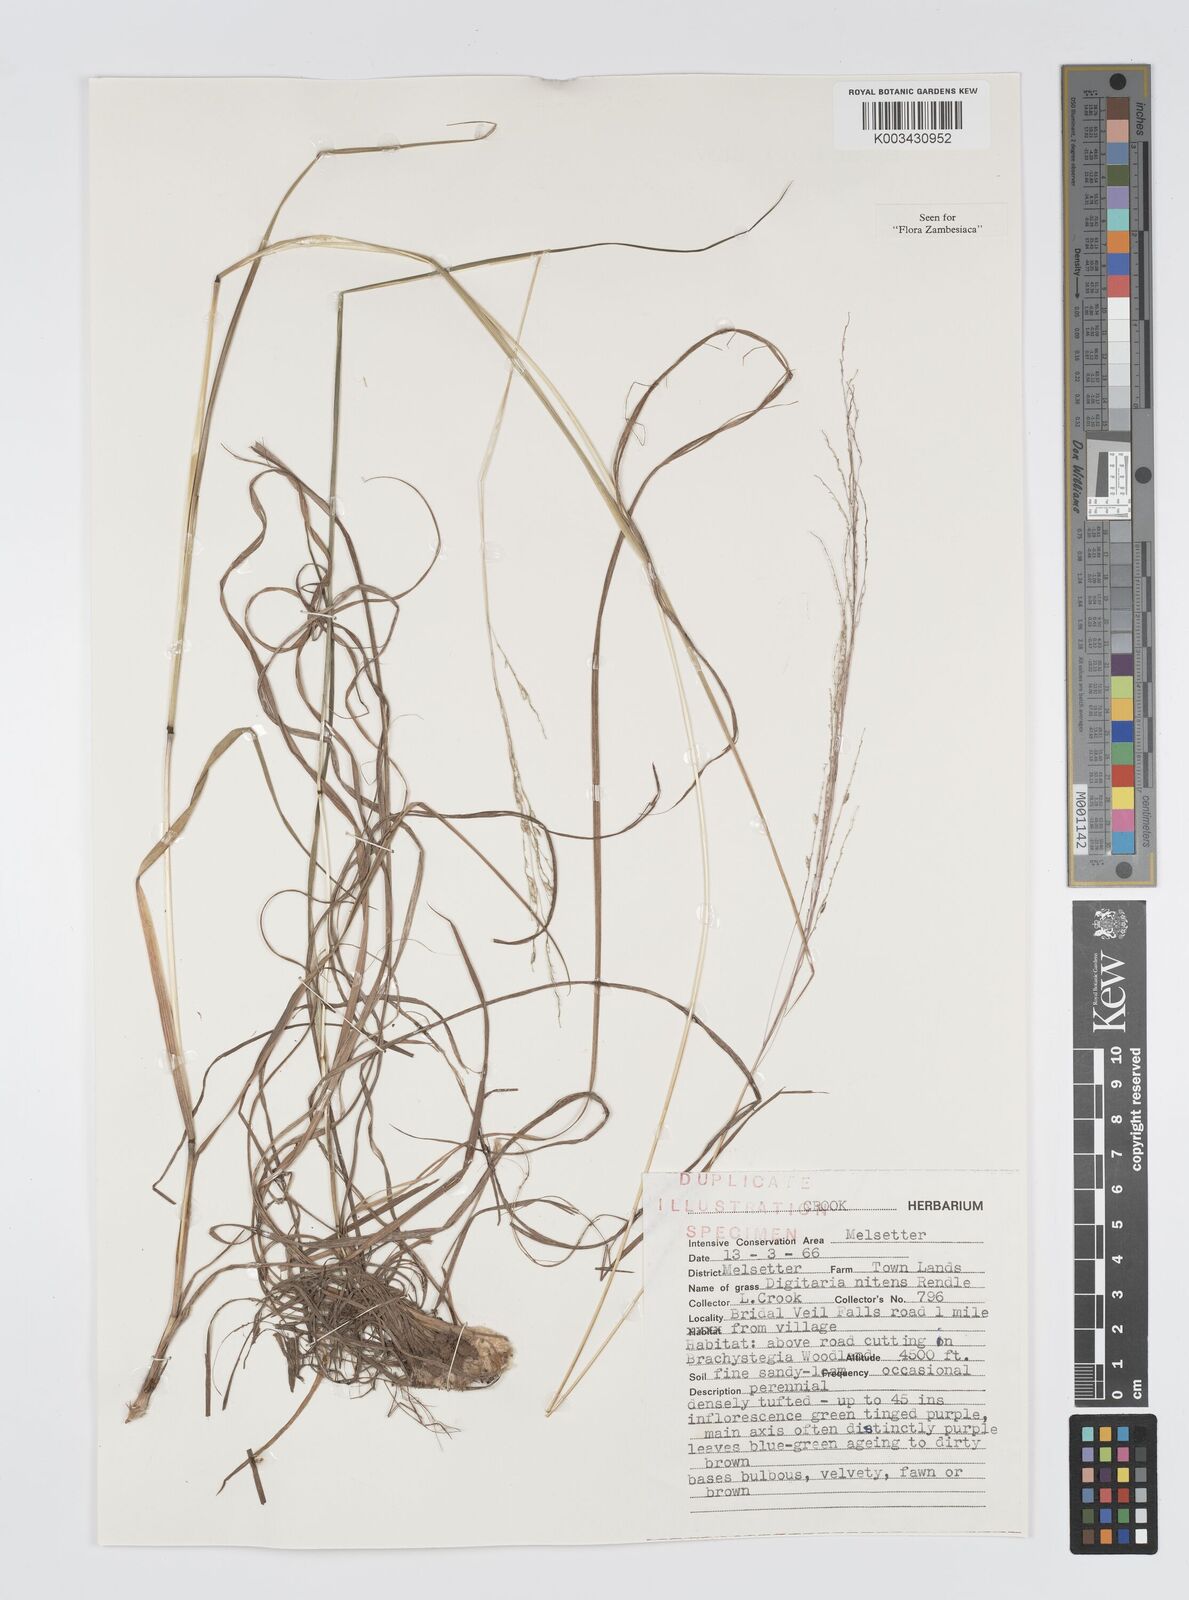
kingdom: Plantae
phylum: Tracheophyta
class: Liliopsida
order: Poales
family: Poaceae
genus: Digitaria
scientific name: Digitaria flaccida
